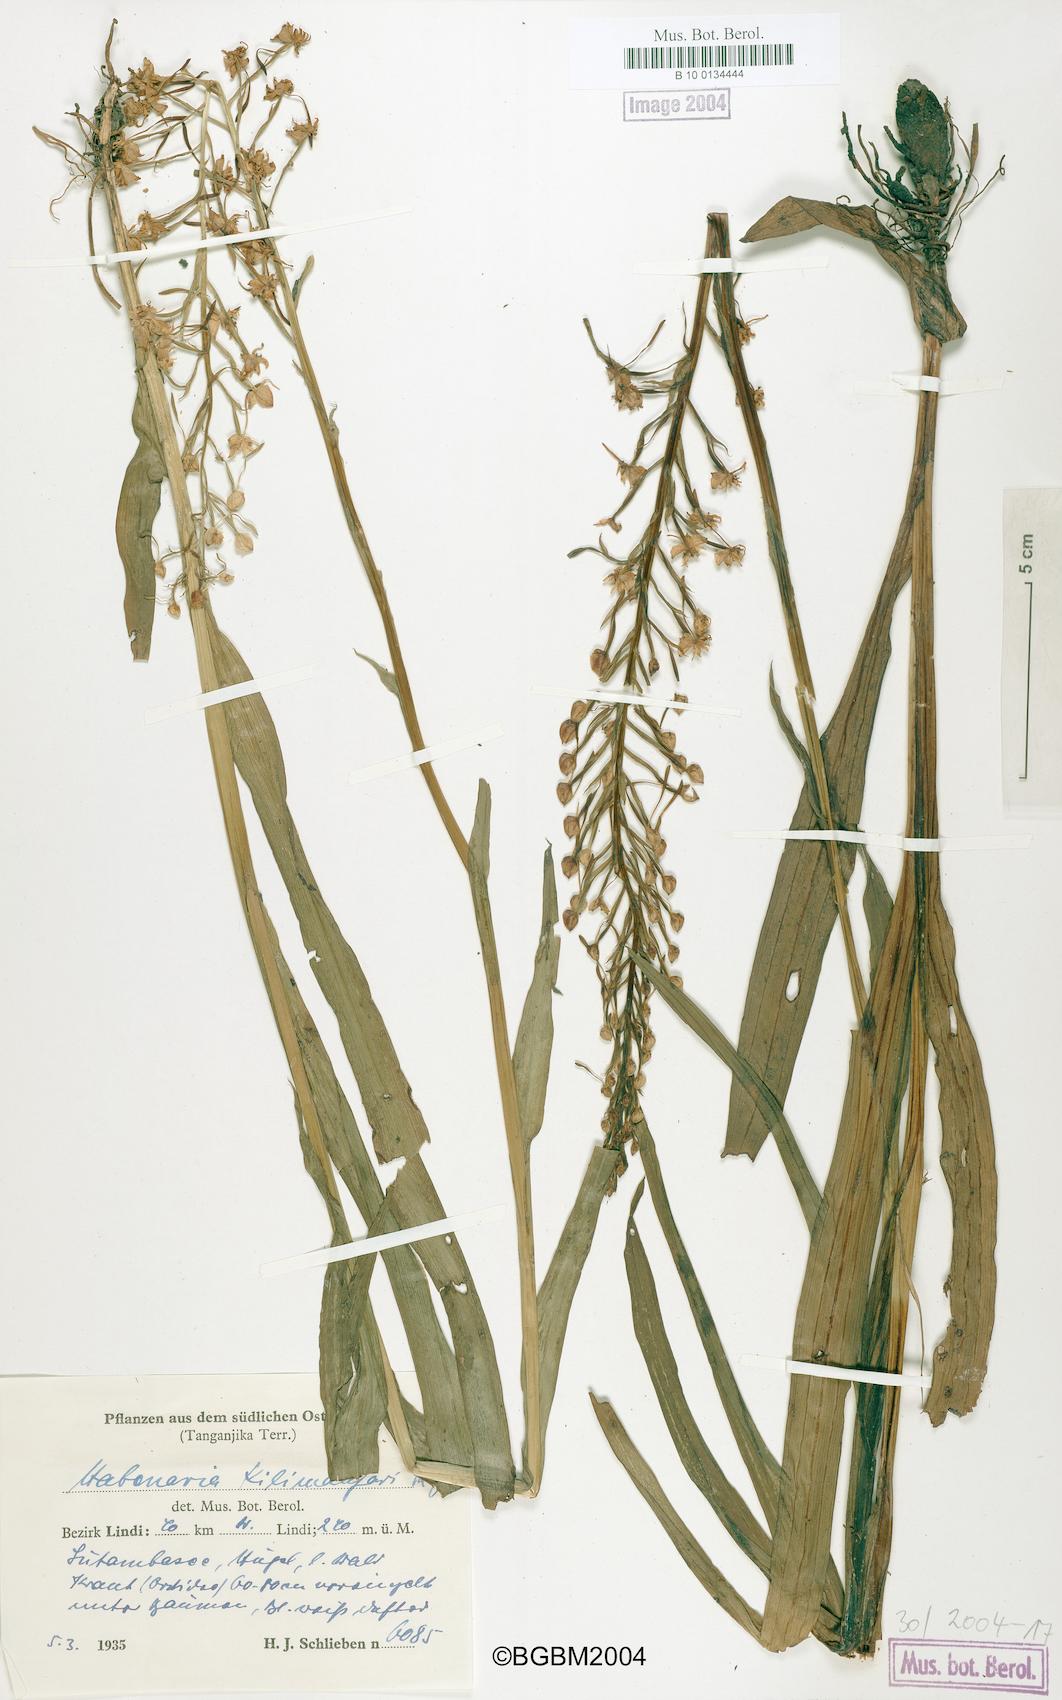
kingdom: Plantae
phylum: Tracheophyta
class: Liliopsida
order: Asparagales
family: Orchidaceae
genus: Habenaria
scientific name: Habenaria kilimanjari
